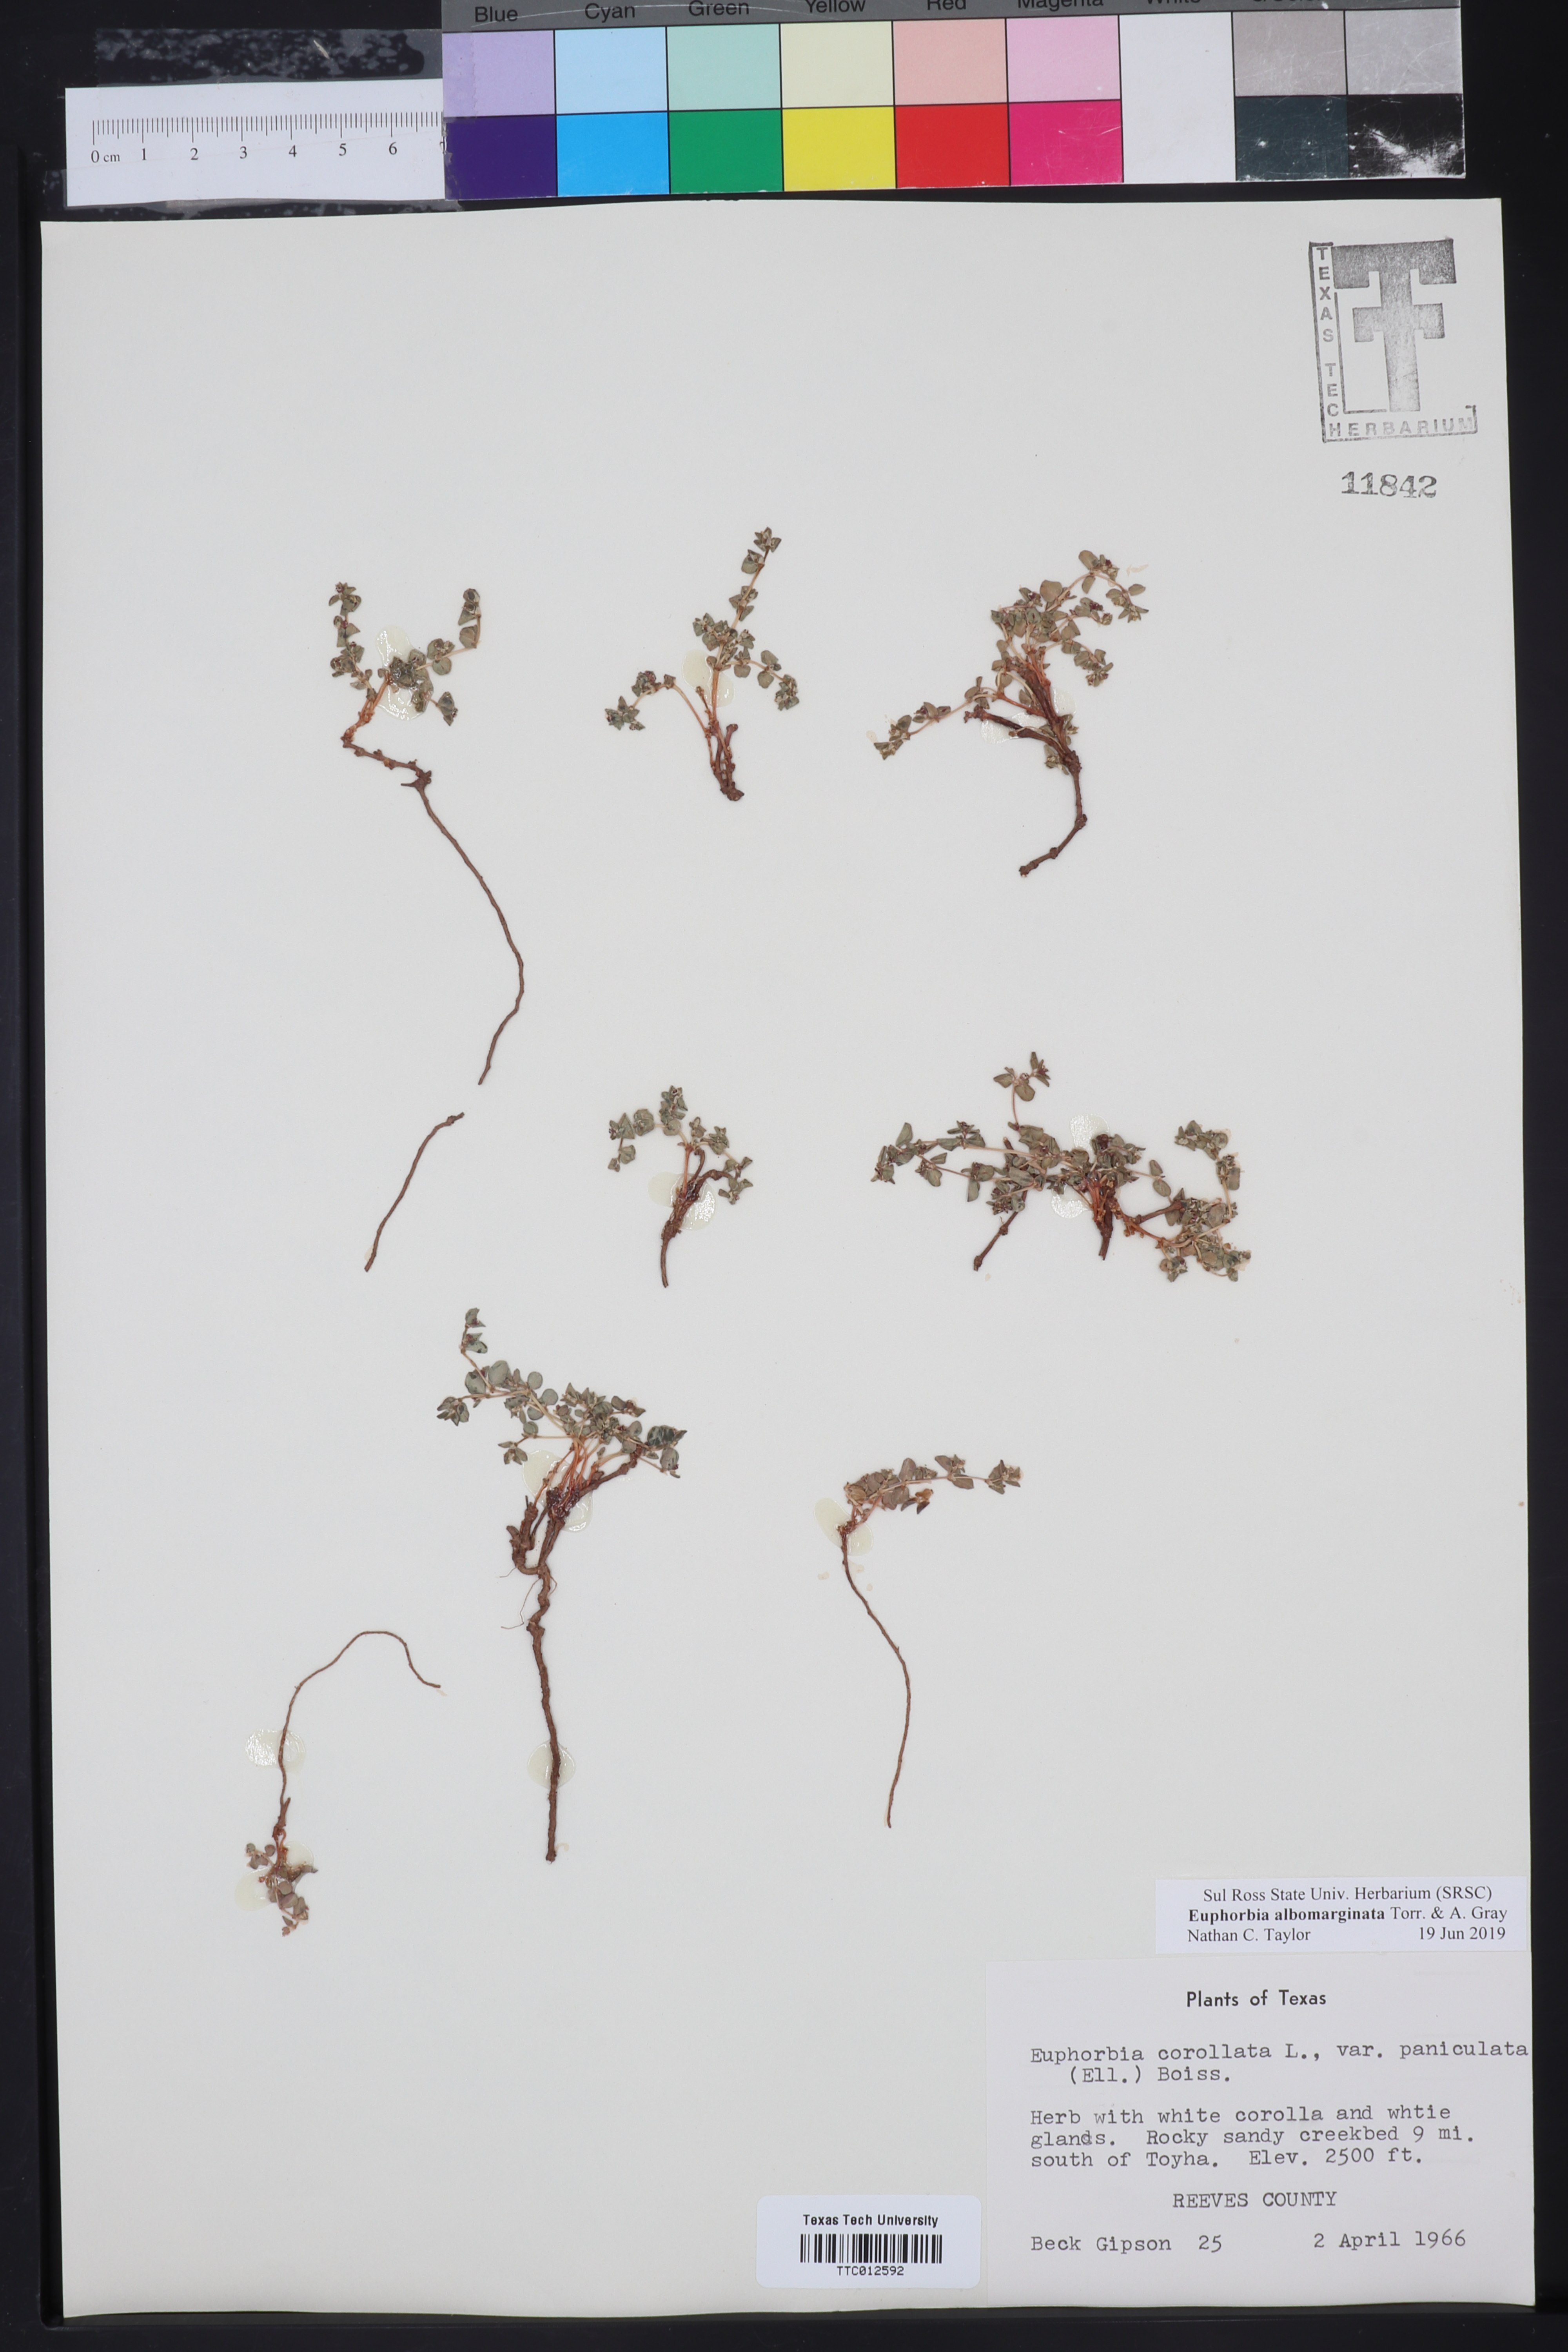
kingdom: Plantae
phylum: Tracheophyta
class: Magnoliopsida
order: Malpighiales
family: Euphorbiaceae
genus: Euphorbia
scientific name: Euphorbia albomarginata
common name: Whitemargin sandmat
